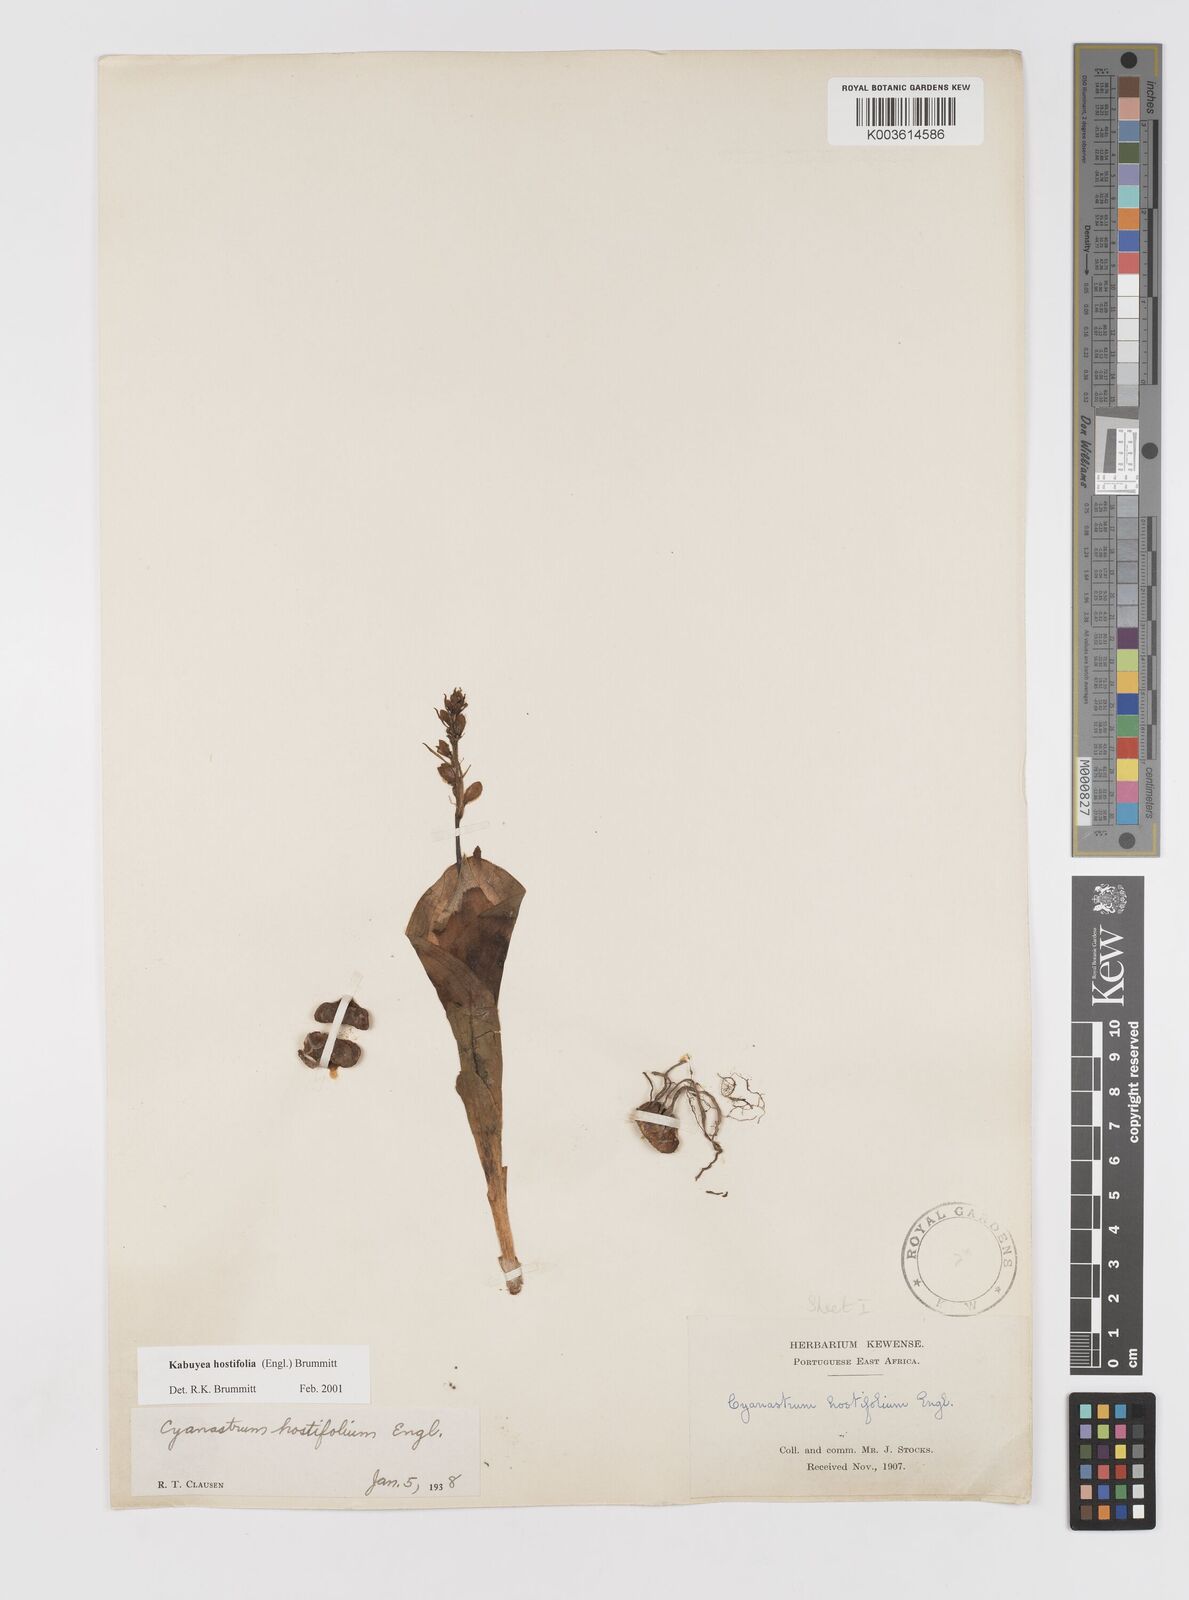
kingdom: Plantae
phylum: Tracheophyta
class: Liliopsida
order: Asparagales
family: Tecophilaeaceae
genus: Kabuyea
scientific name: Kabuyea hostifolia
